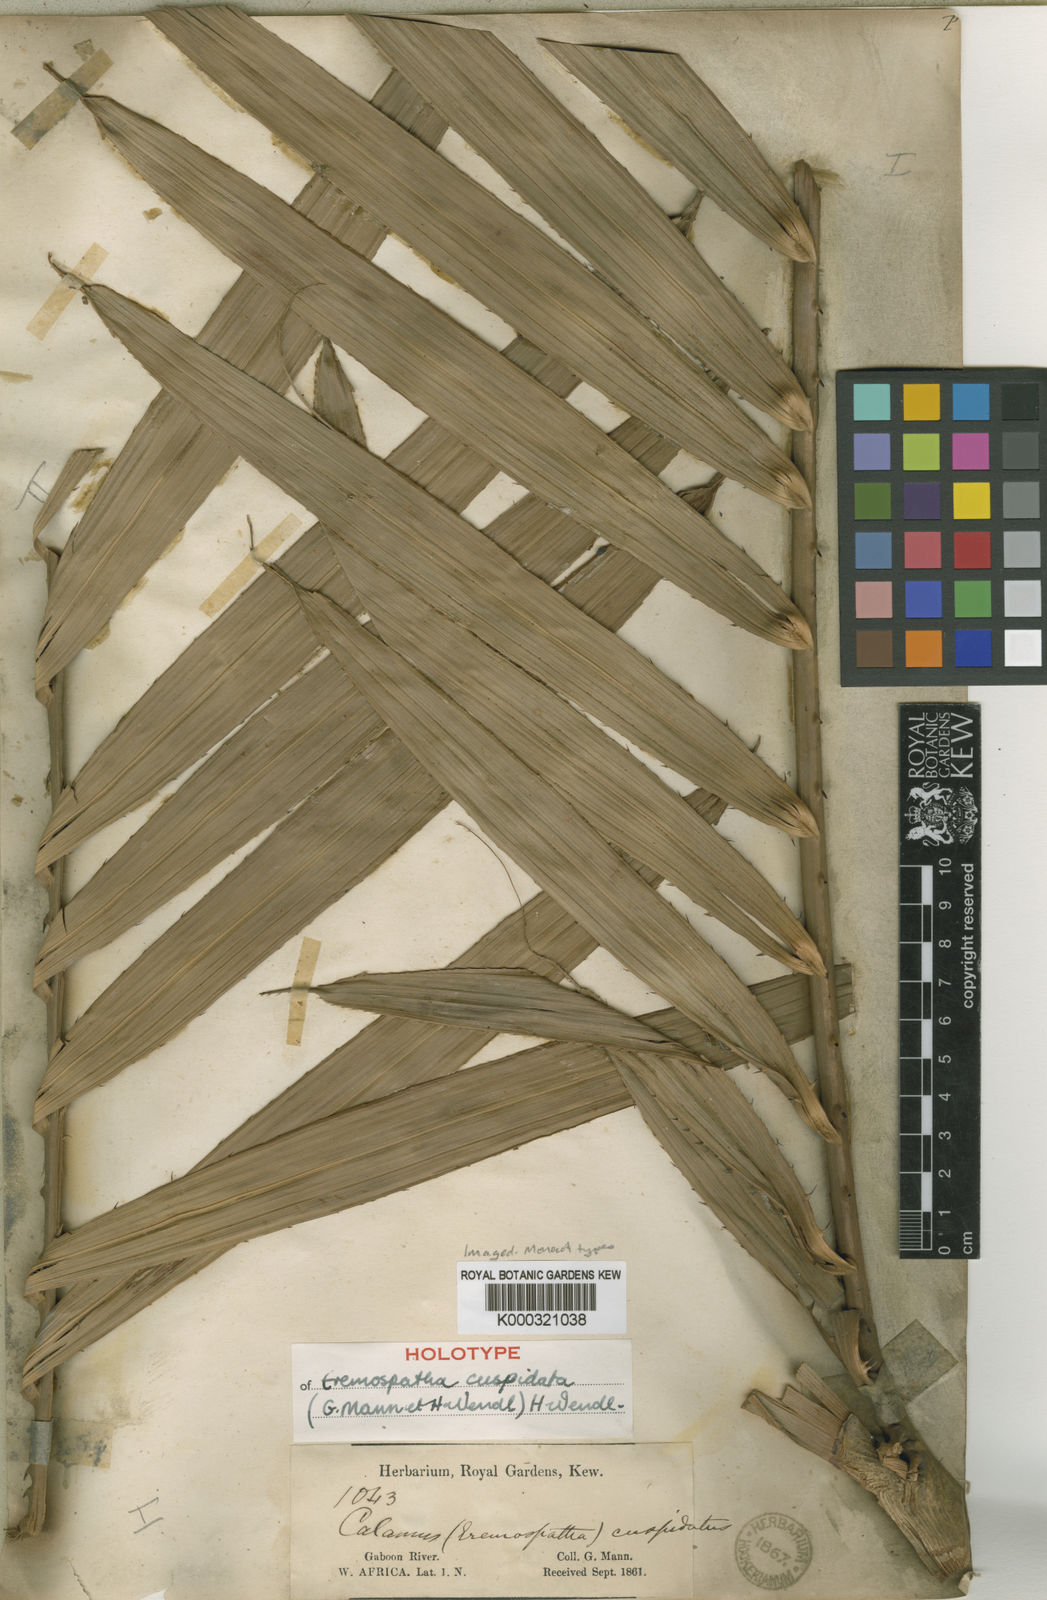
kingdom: Plantae
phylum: Tracheophyta
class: Liliopsida
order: Arecales
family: Arecaceae
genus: Eremospatha
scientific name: Eremospatha cuspidata
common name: Rattan
